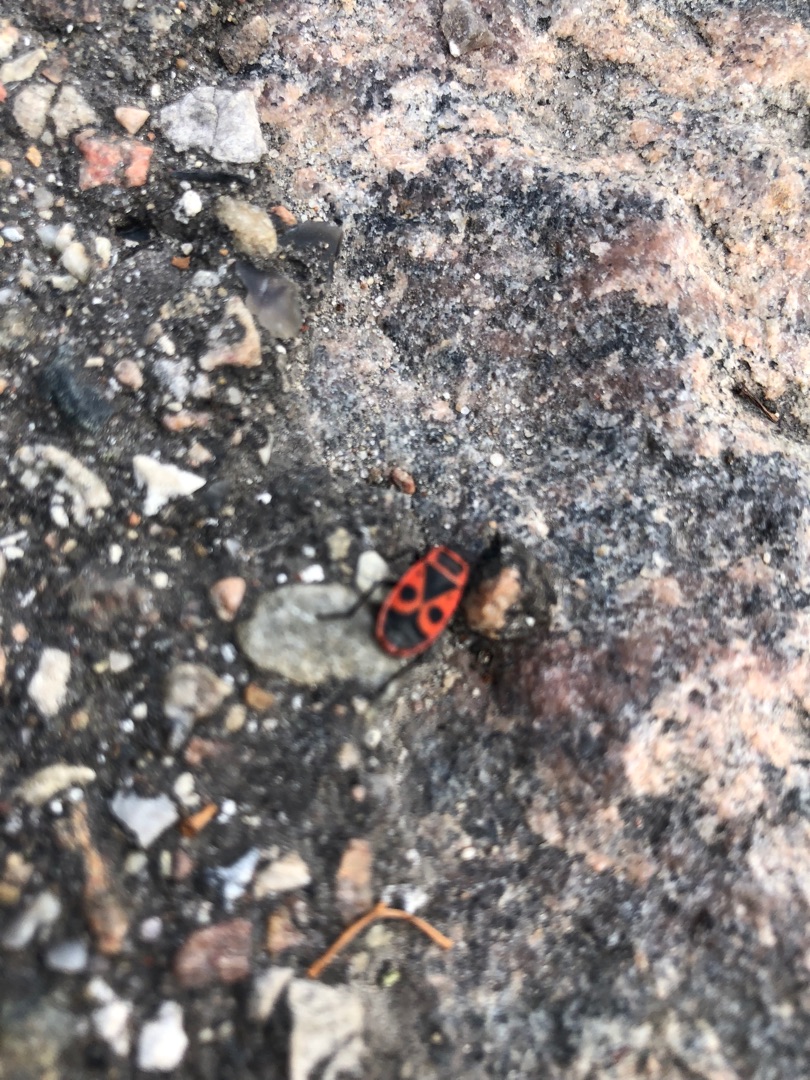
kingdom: Animalia
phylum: Arthropoda
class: Insecta
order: Hemiptera
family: Pyrrhocoridae
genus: Pyrrhocoris
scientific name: Pyrrhocoris apterus
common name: Ildtæge
